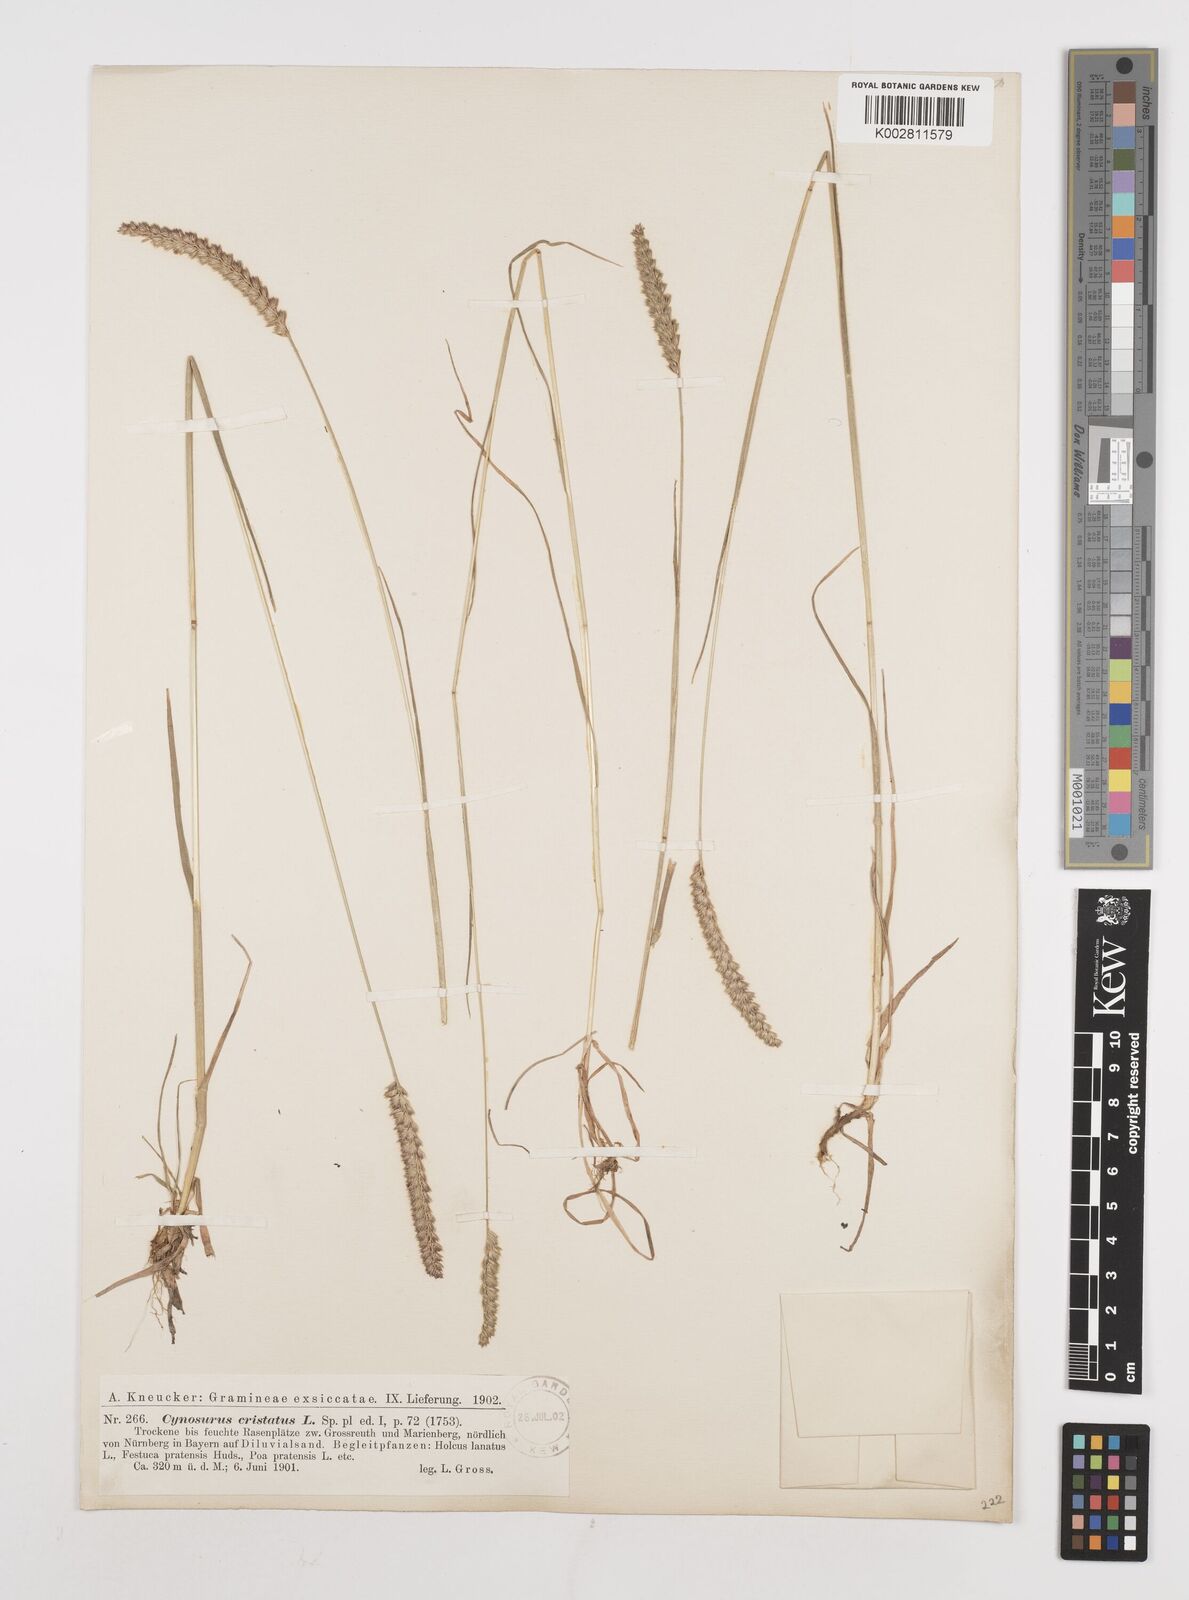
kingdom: Plantae
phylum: Tracheophyta
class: Liliopsida
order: Poales
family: Poaceae
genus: Cynosurus
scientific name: Cynosurus cristatus
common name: Crested dog's-tail
